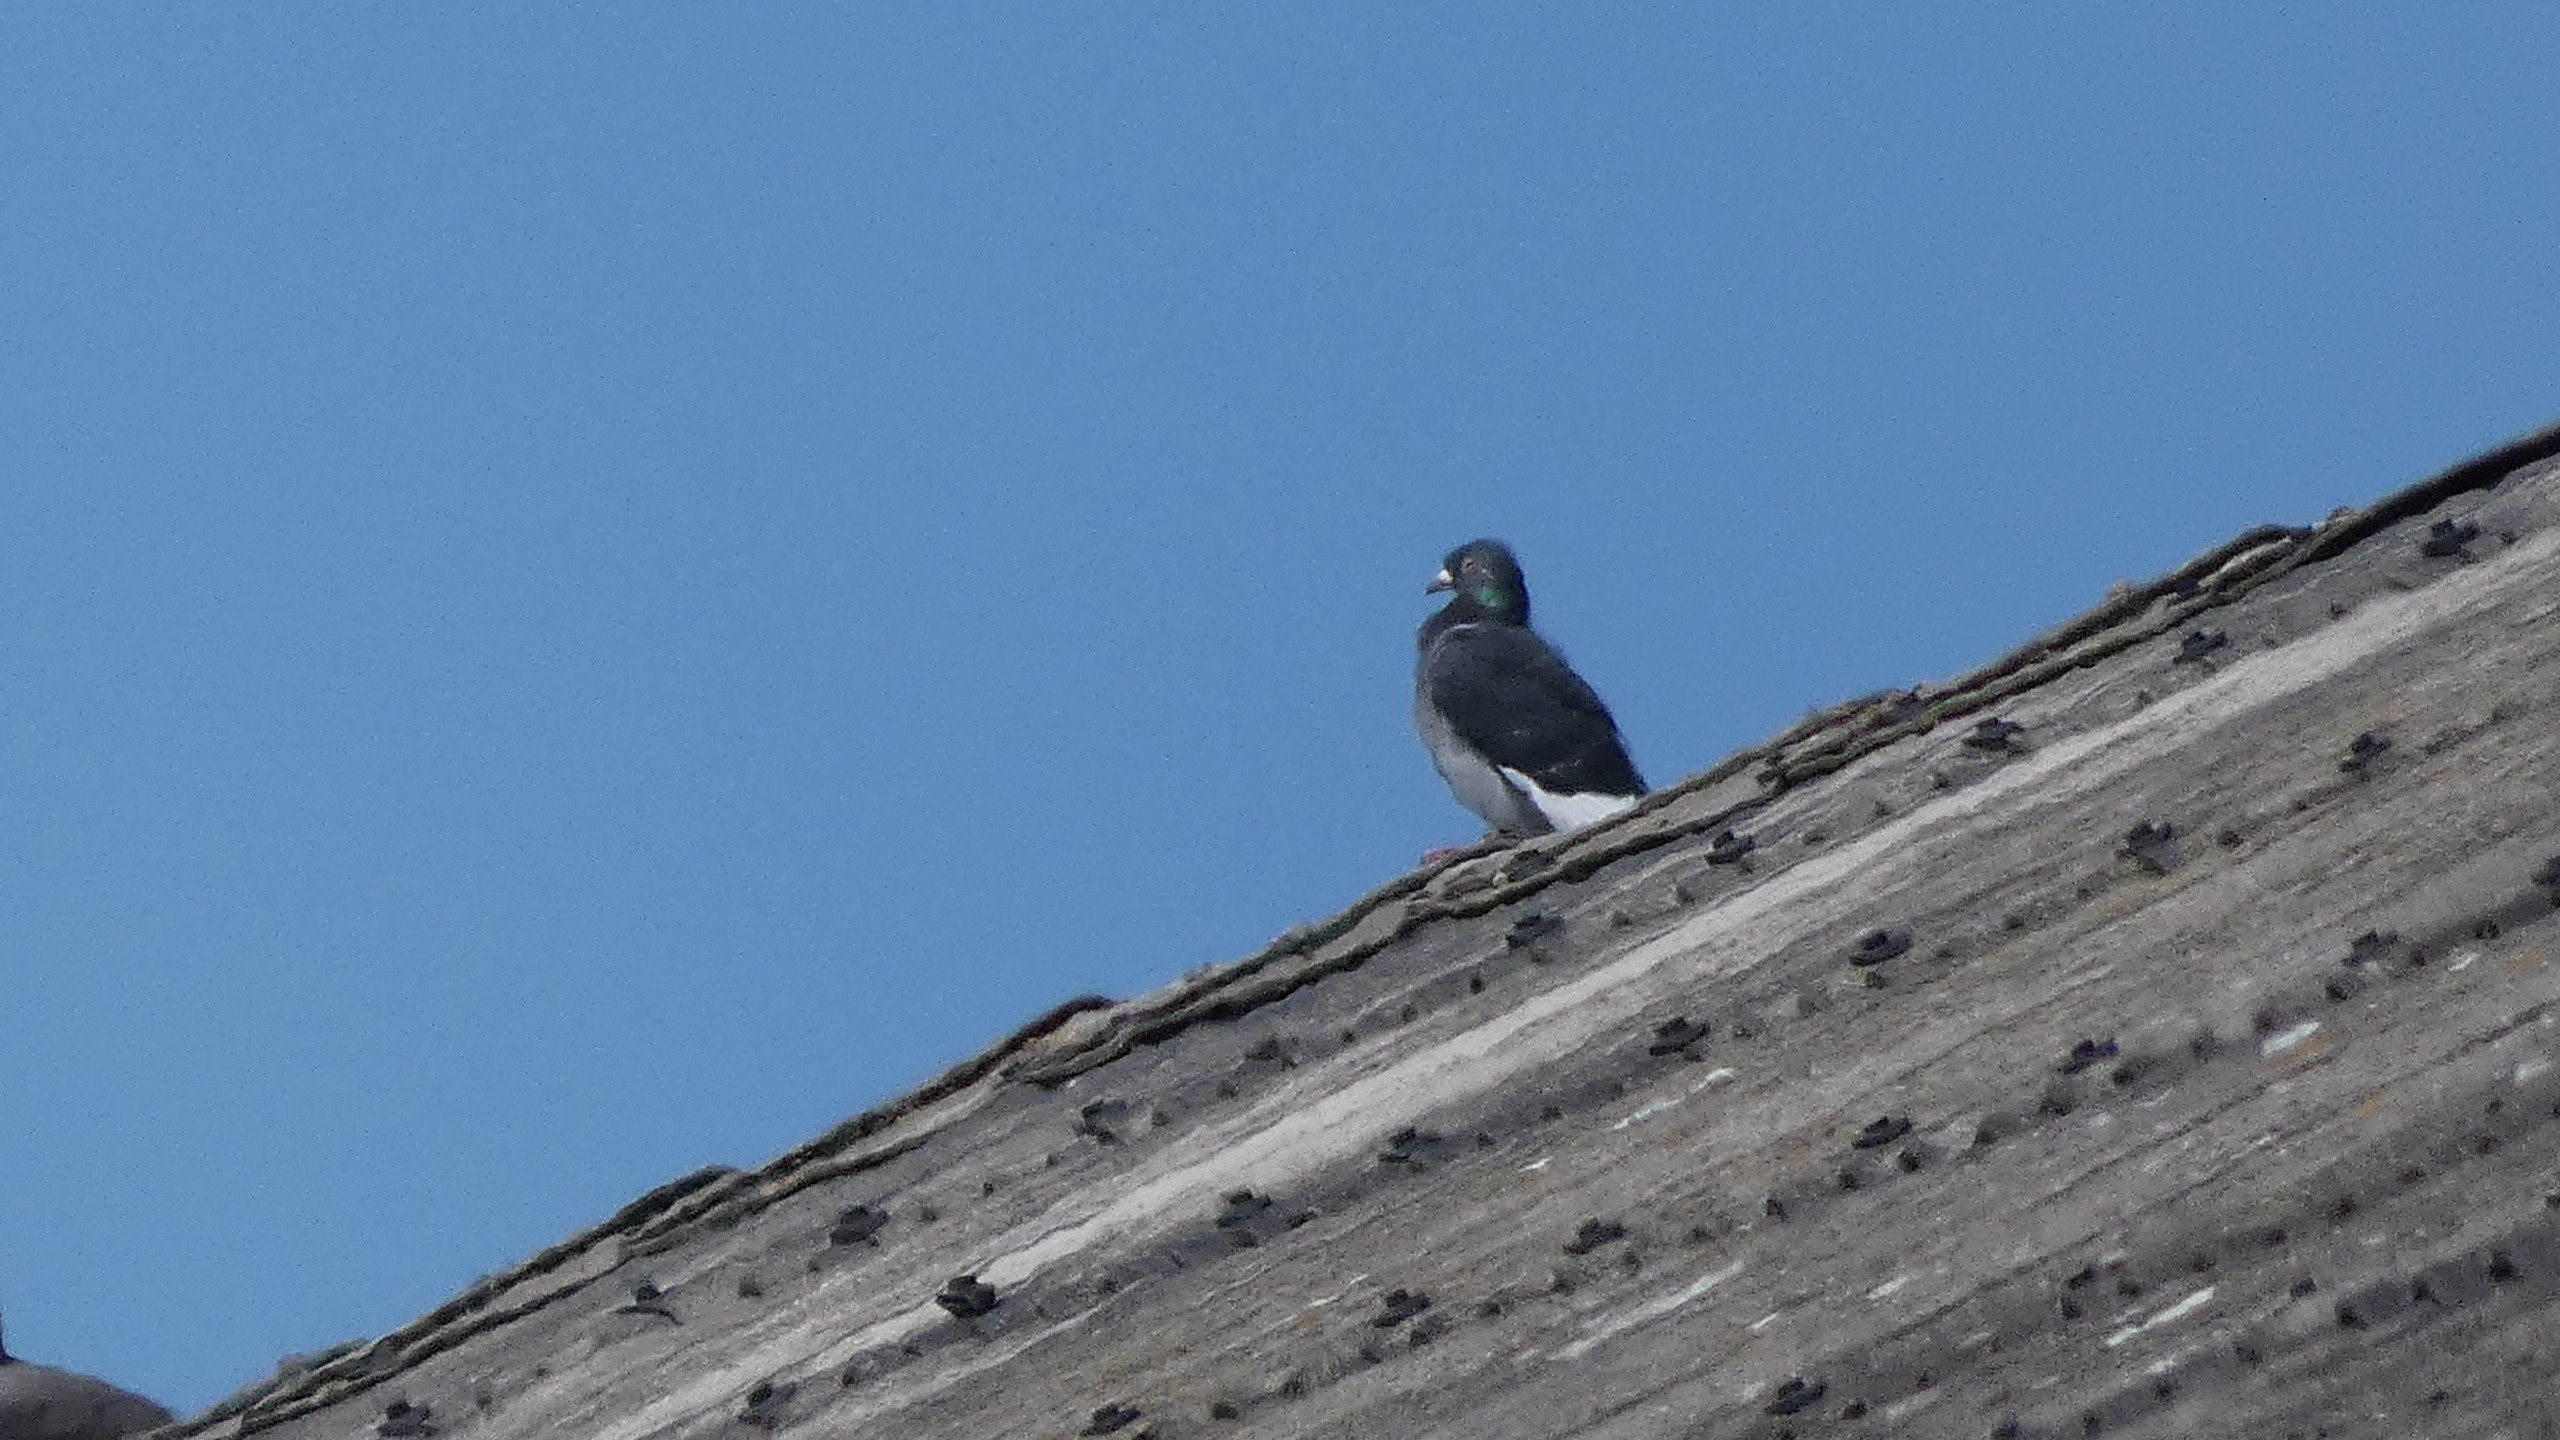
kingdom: Animalia
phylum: Chordata
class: Aves
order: Columbiformes
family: Columbidae
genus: Columba
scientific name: Columba livia
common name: Tamdue
